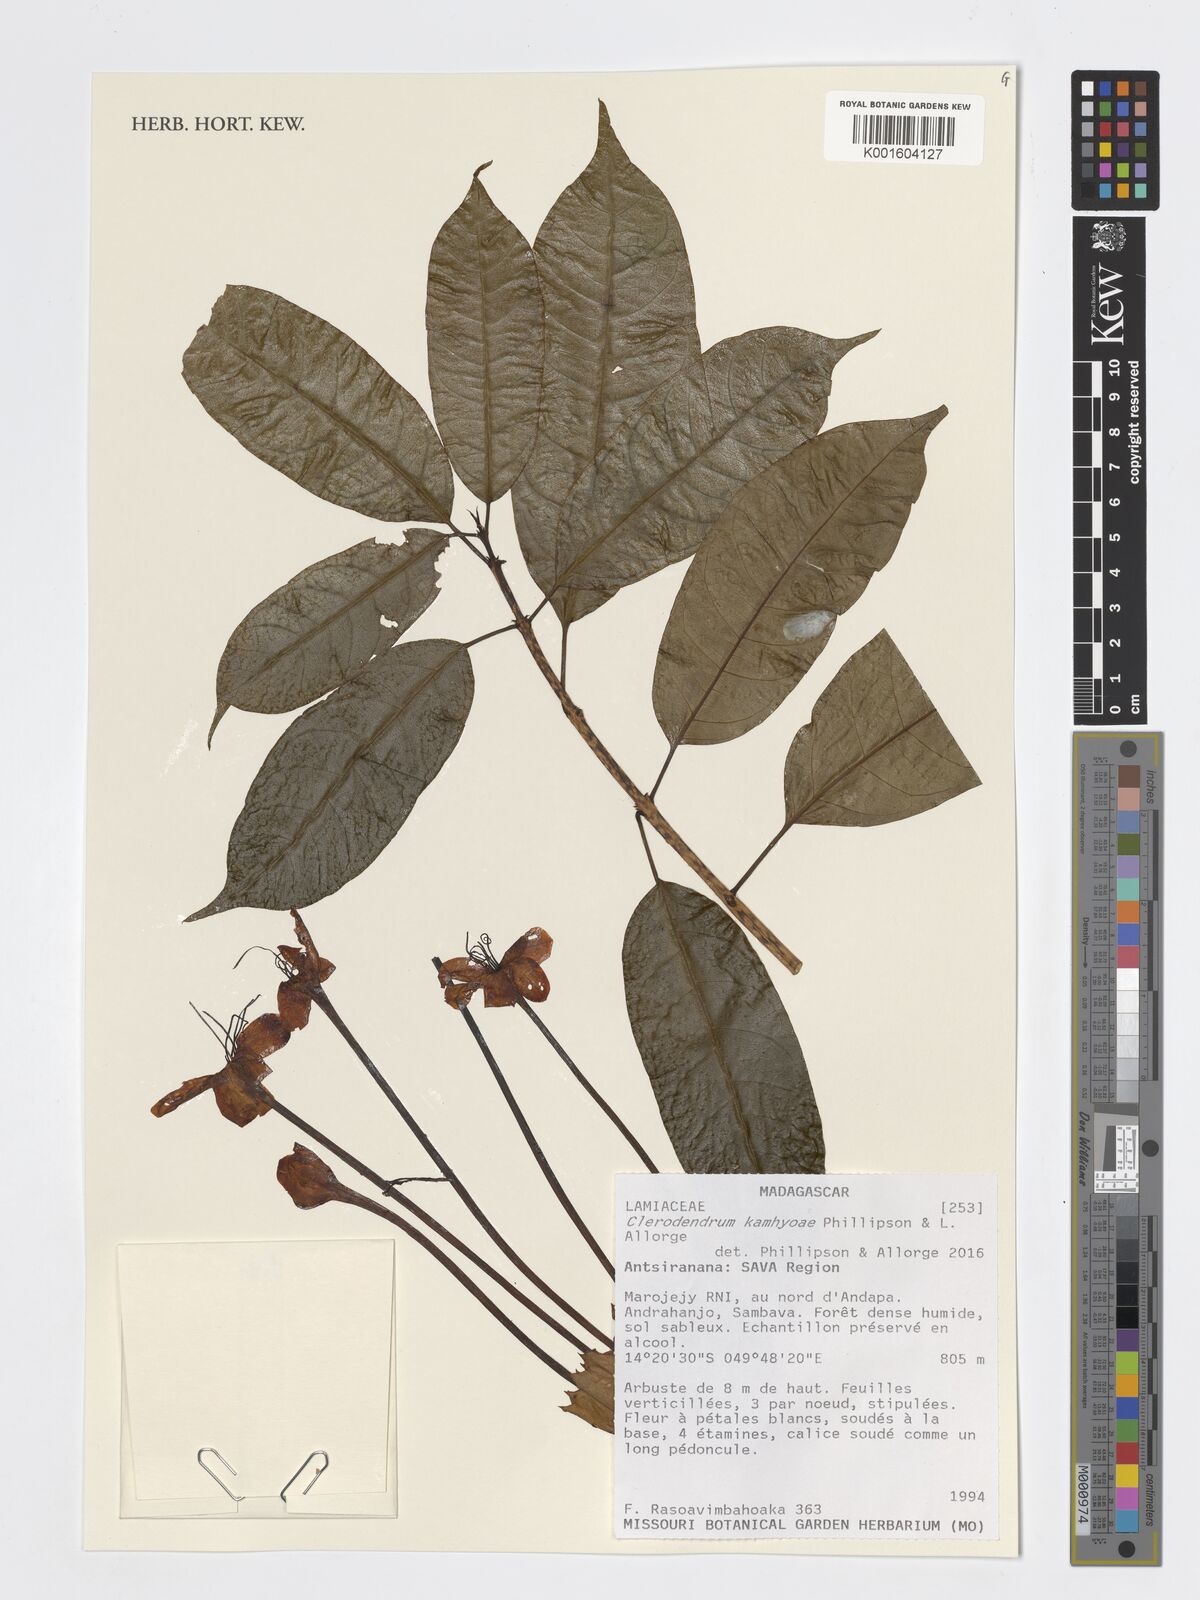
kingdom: Plantae
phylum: Tracheophyta
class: Magnoliopsida
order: Lamiales
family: Lamiaceae
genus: Clerodendrum
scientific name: Clerodendrum kamhyoae
